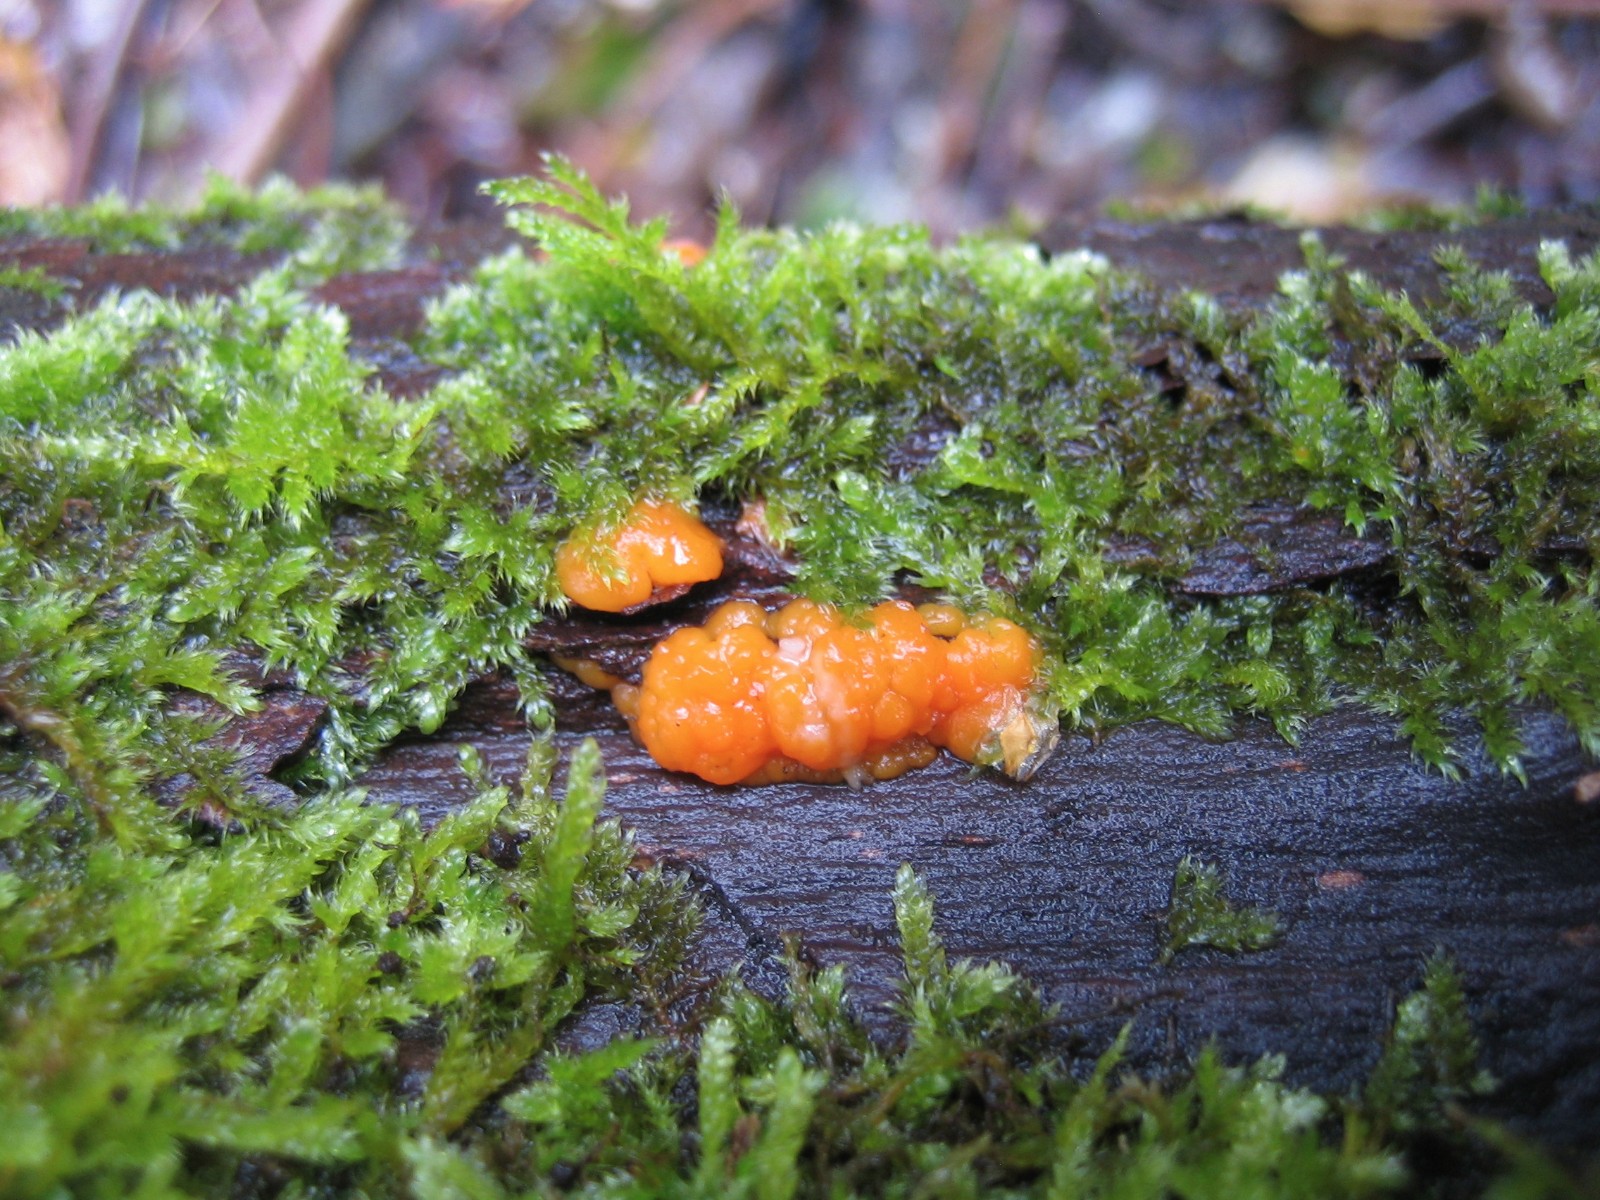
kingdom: Fungi
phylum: Basidiomycota
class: Dacrymycetes
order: Dacrymycetales
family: Dacrymycetaceae
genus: Dacrymyces
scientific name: Dacrymyces stillatus
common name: almindelig tåresvamp
